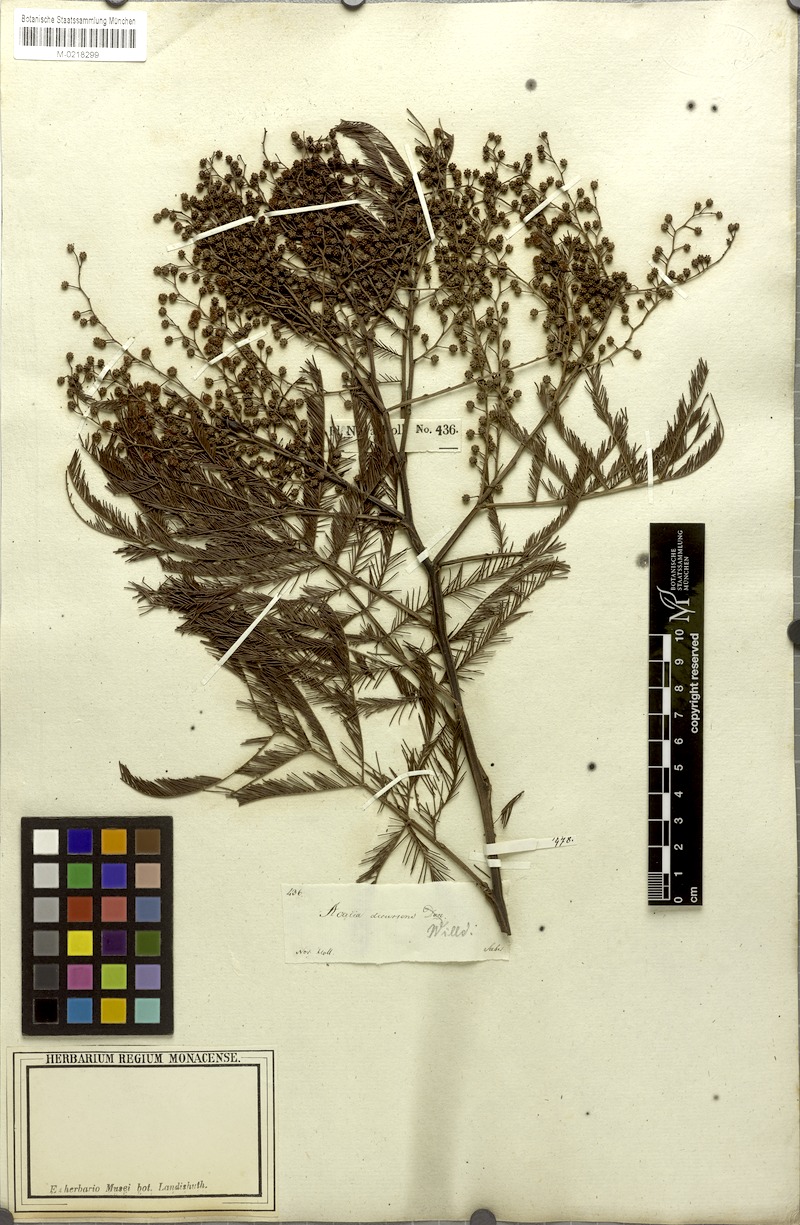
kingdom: Plantae
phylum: Tracheophyta
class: Magnoliopsida
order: Fabales
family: Fabaceae
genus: Acacia
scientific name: Acacia decurrens
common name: Green wattle
